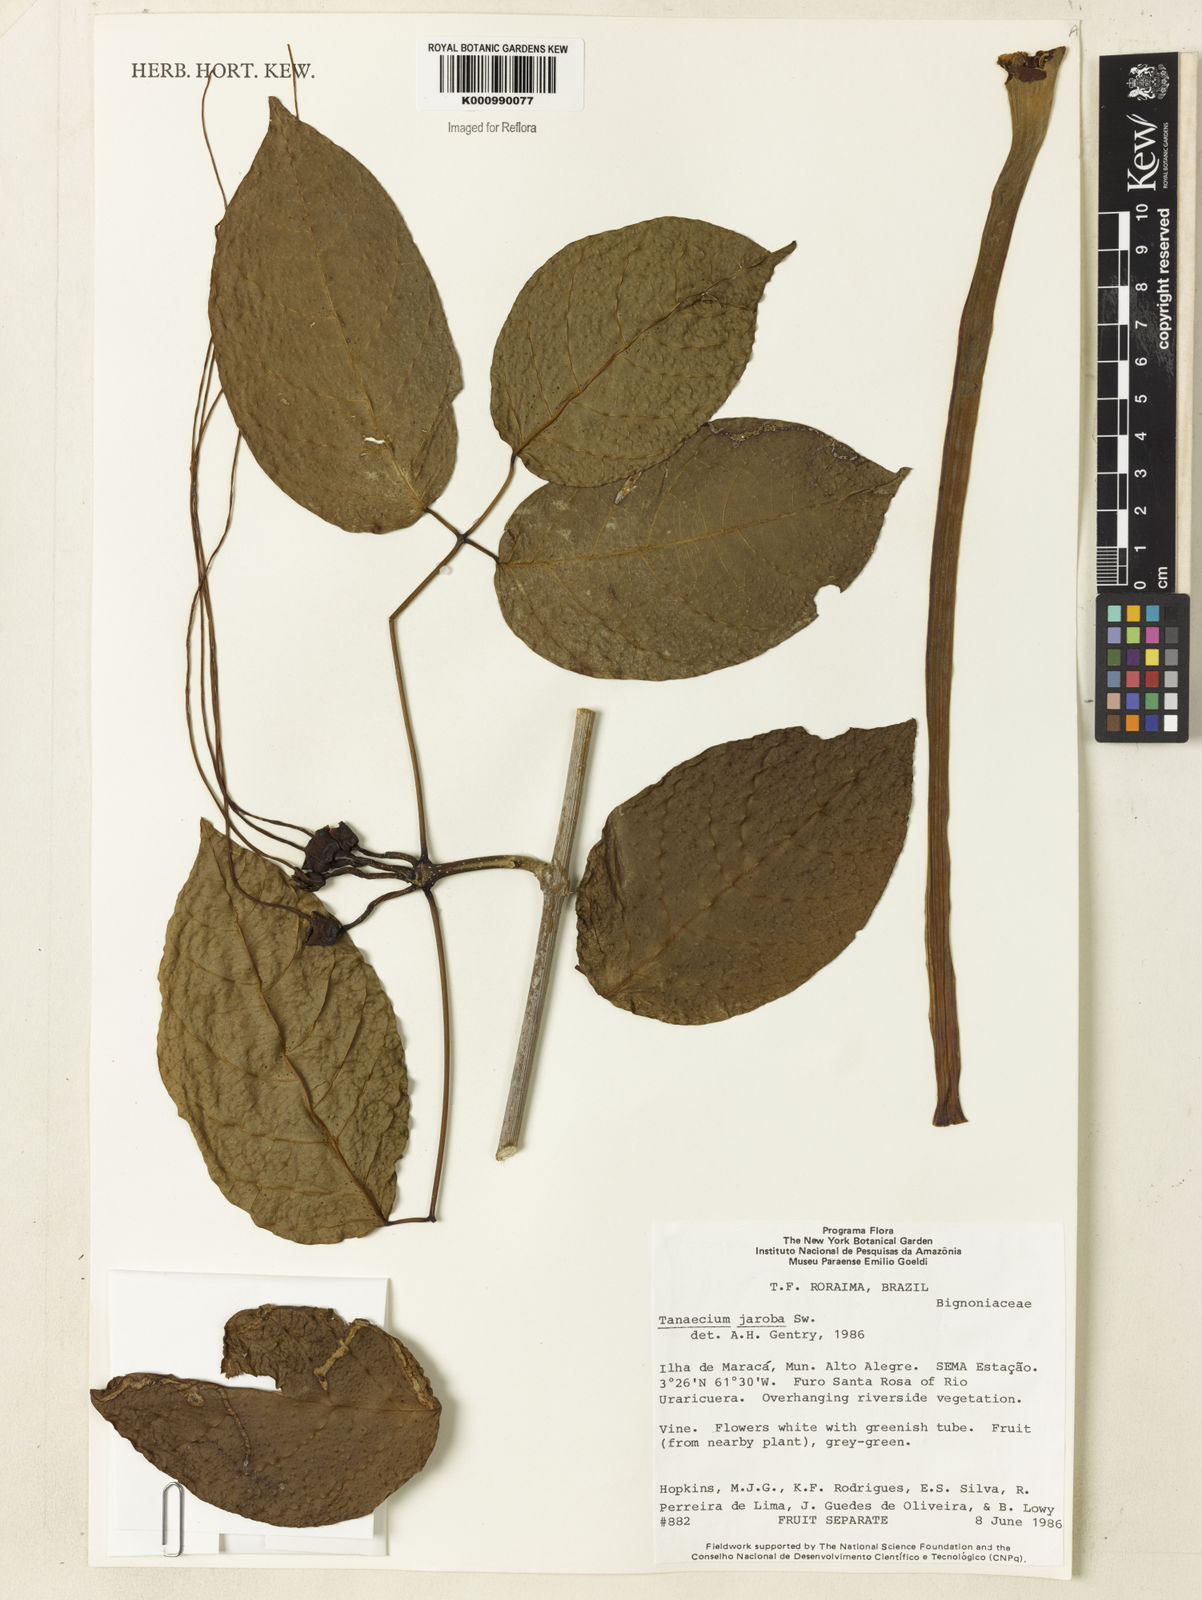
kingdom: Plantae
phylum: Tracheophyta
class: Magnoliopsida
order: Lamiales
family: Bignoniaceae
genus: Tanaecium
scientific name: Tanaecium jaroba
